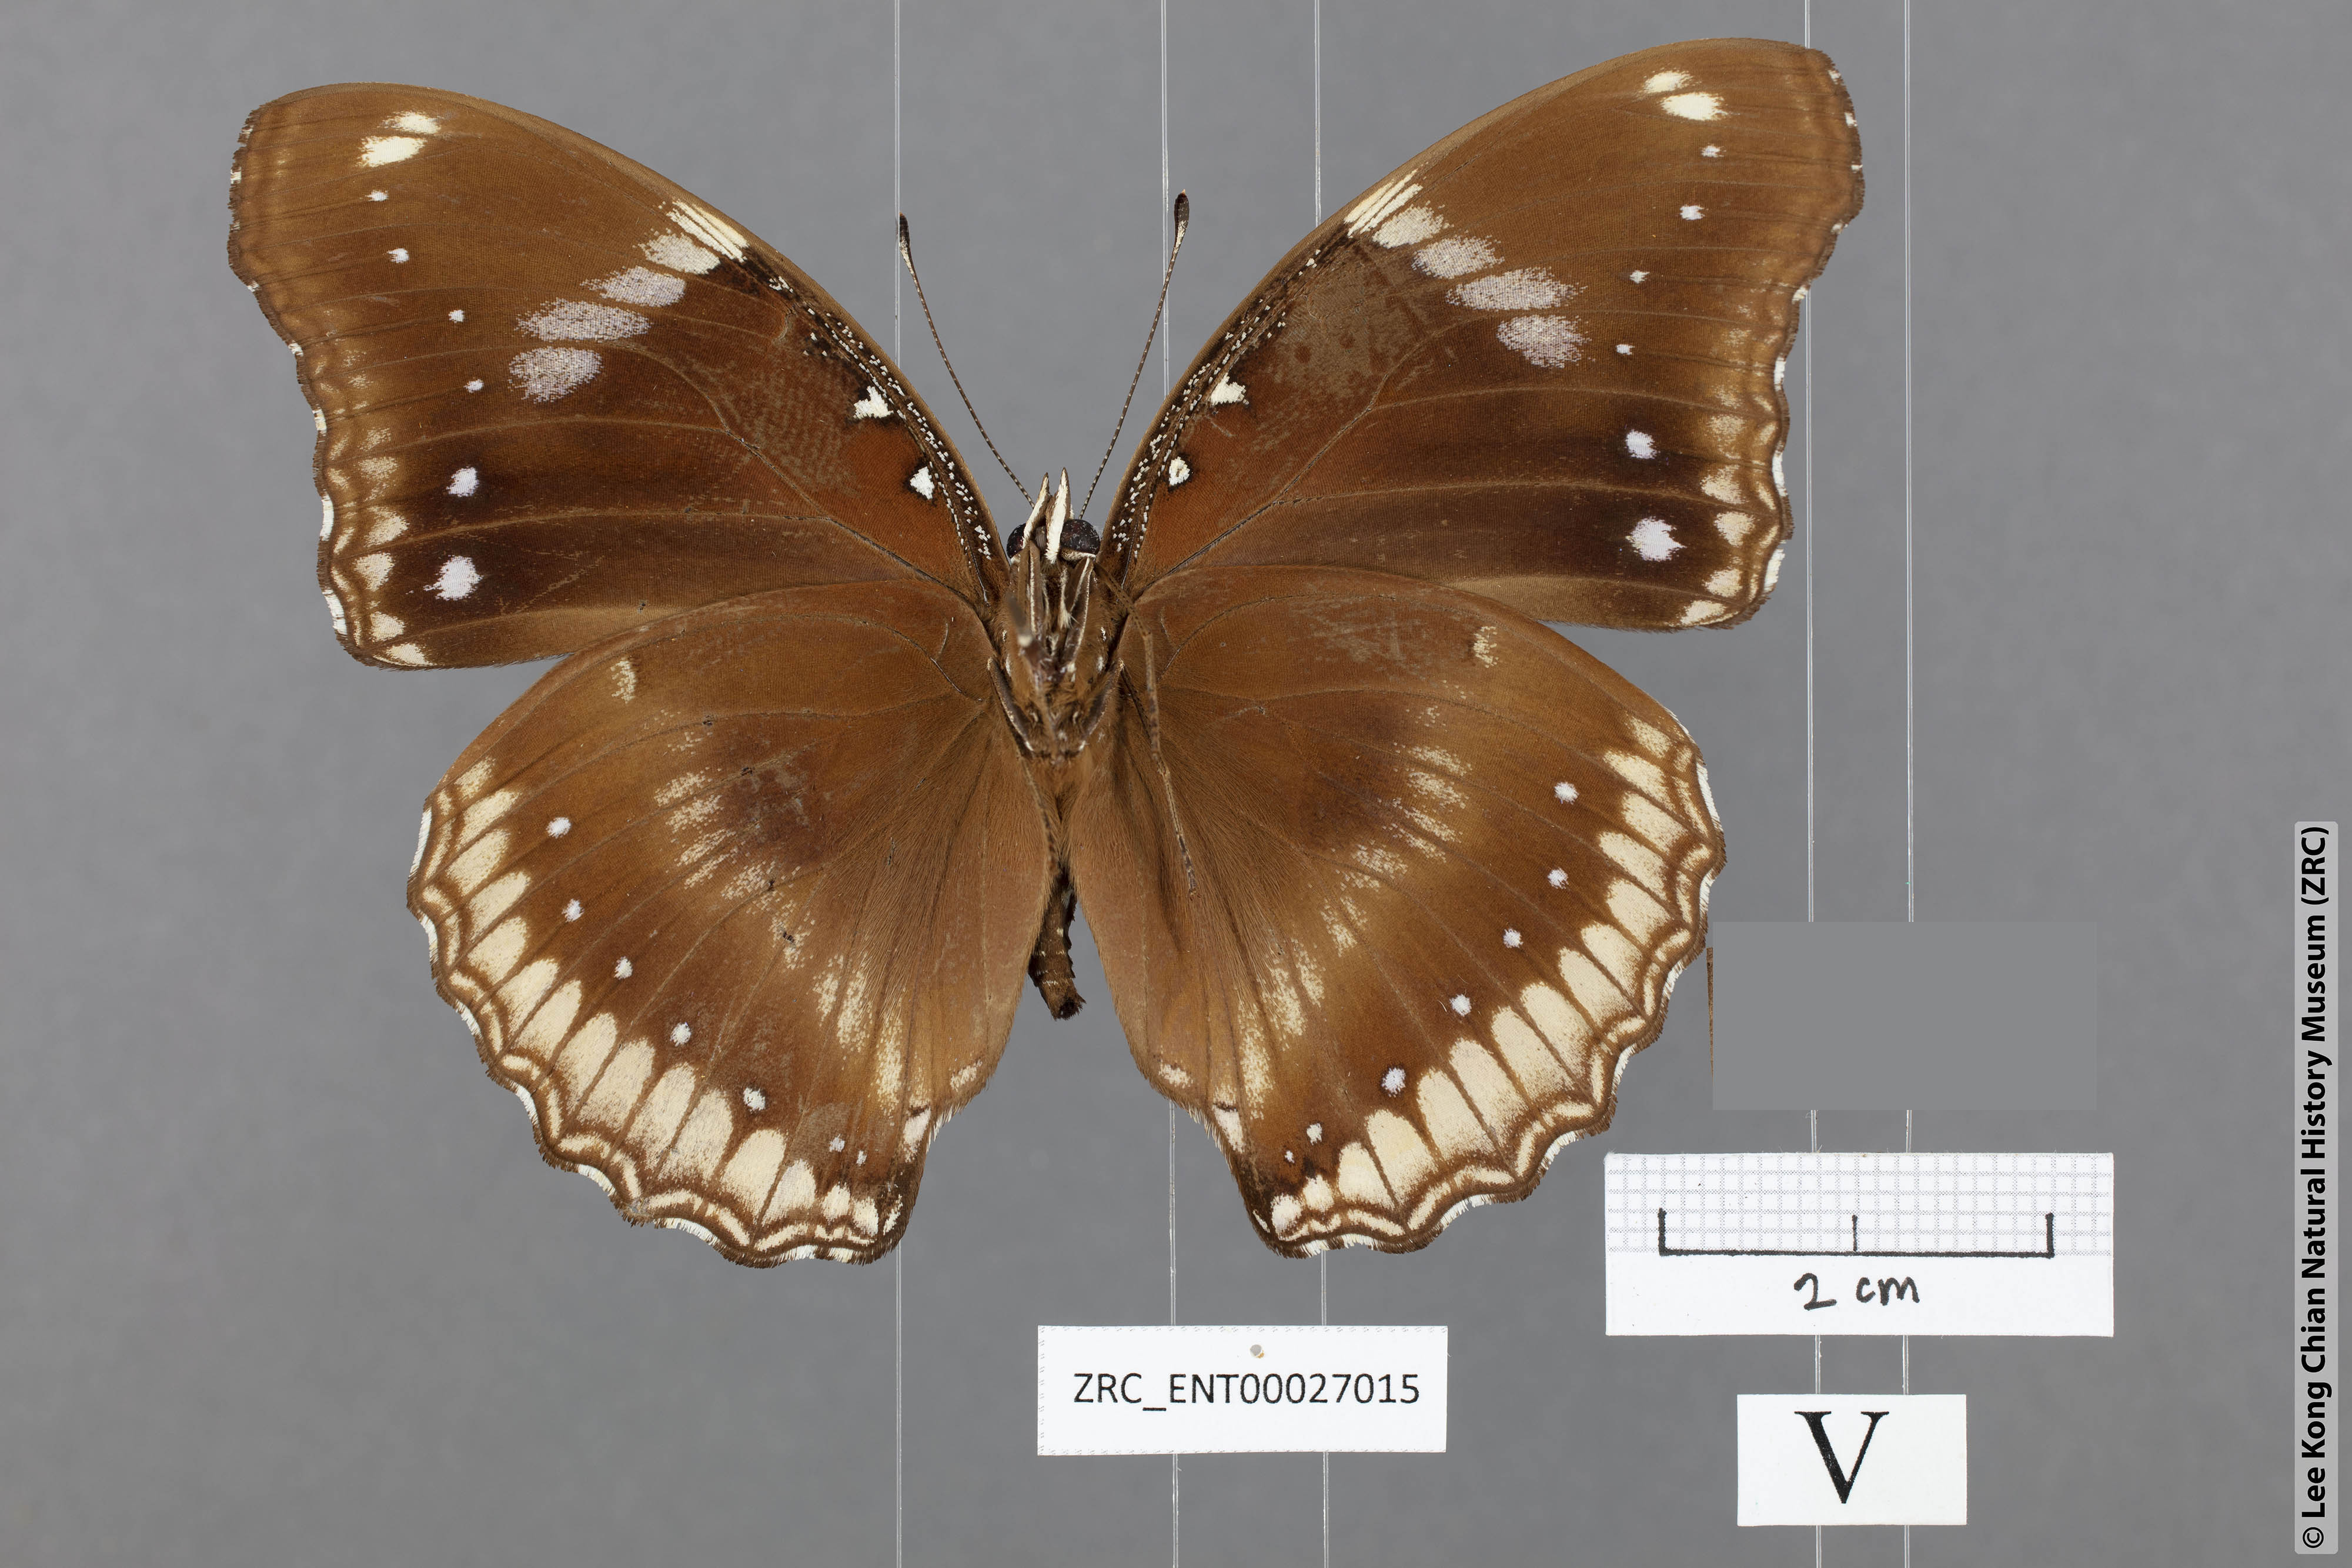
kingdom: Animalia
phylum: Arthropoda
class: Insecta
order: Lepidoptera
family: Nymphalidae
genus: Hypolimnas
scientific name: Hypolimnas bolina
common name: Great eggfly
